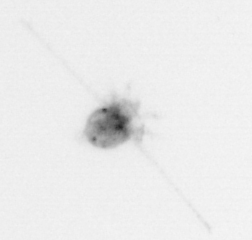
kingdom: Animalia
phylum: Arthropoda
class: Copepoda
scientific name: Copepoda
